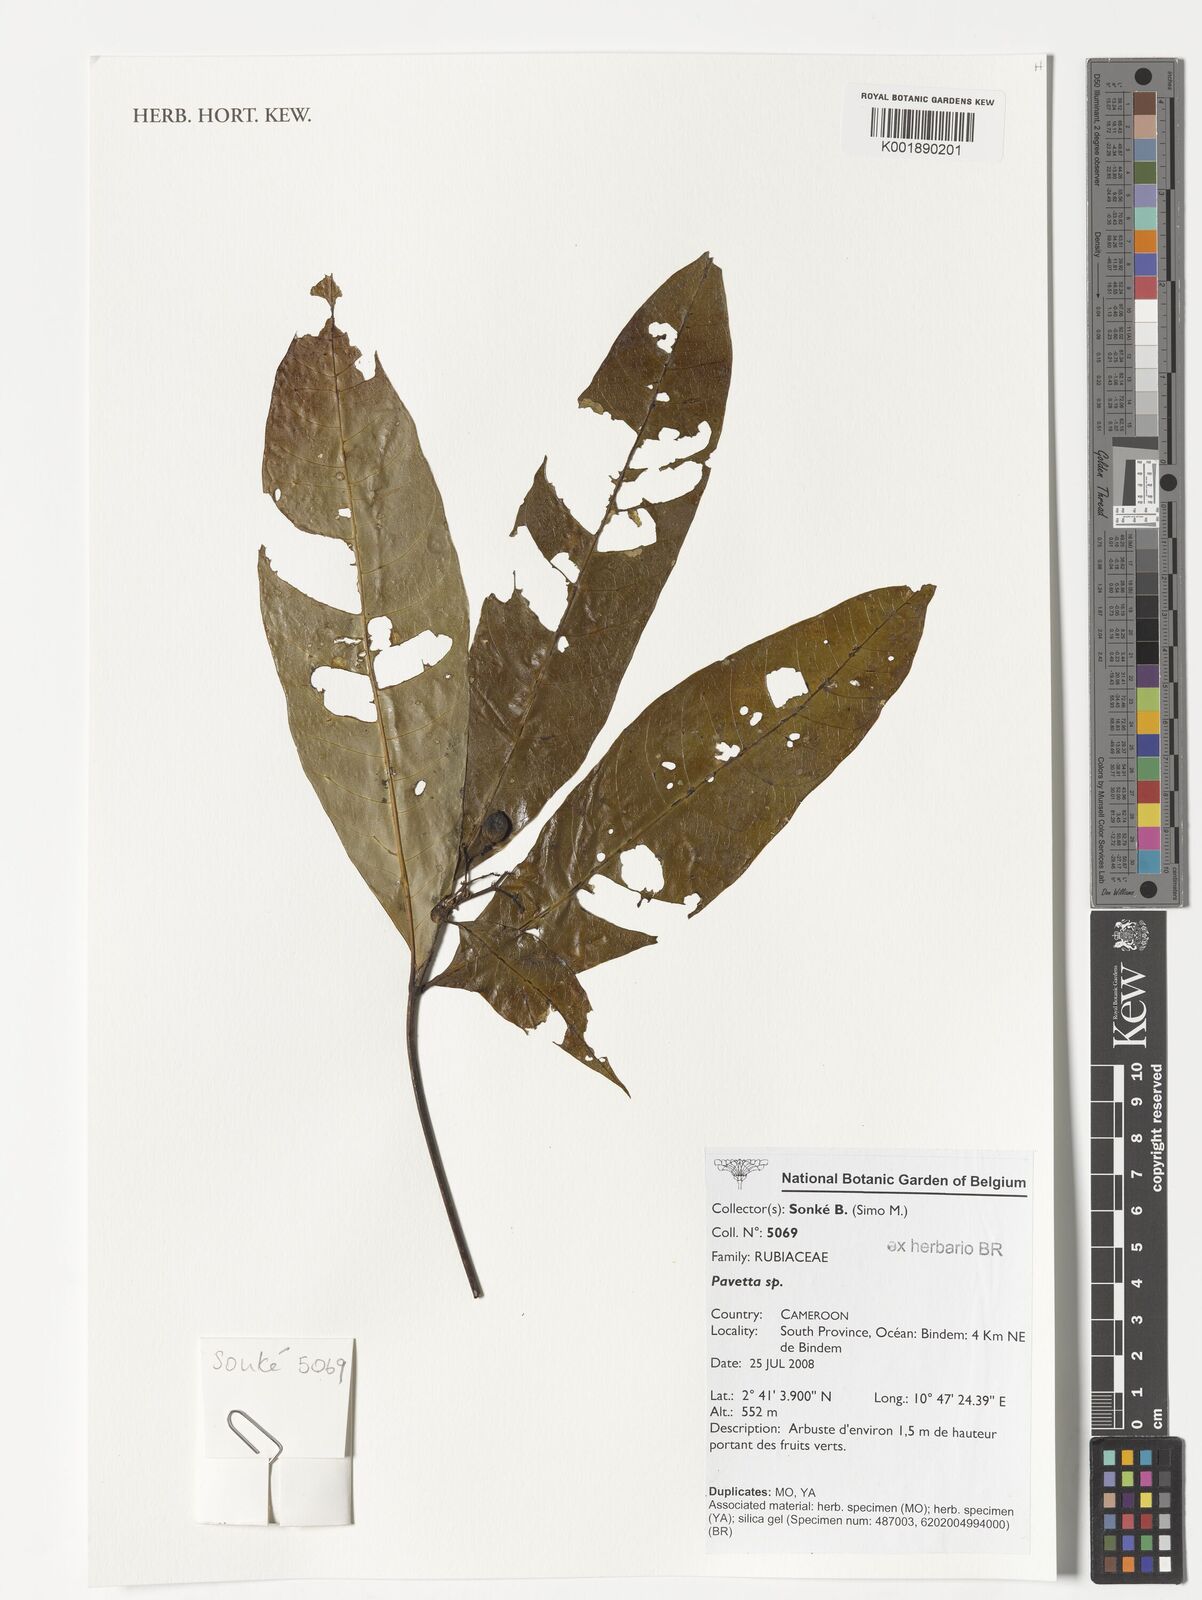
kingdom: Plantae
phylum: Tracheophyta
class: Magnoliopsida
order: Gentianales
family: Rubiaceae
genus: Pavetta
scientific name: Pavetta
